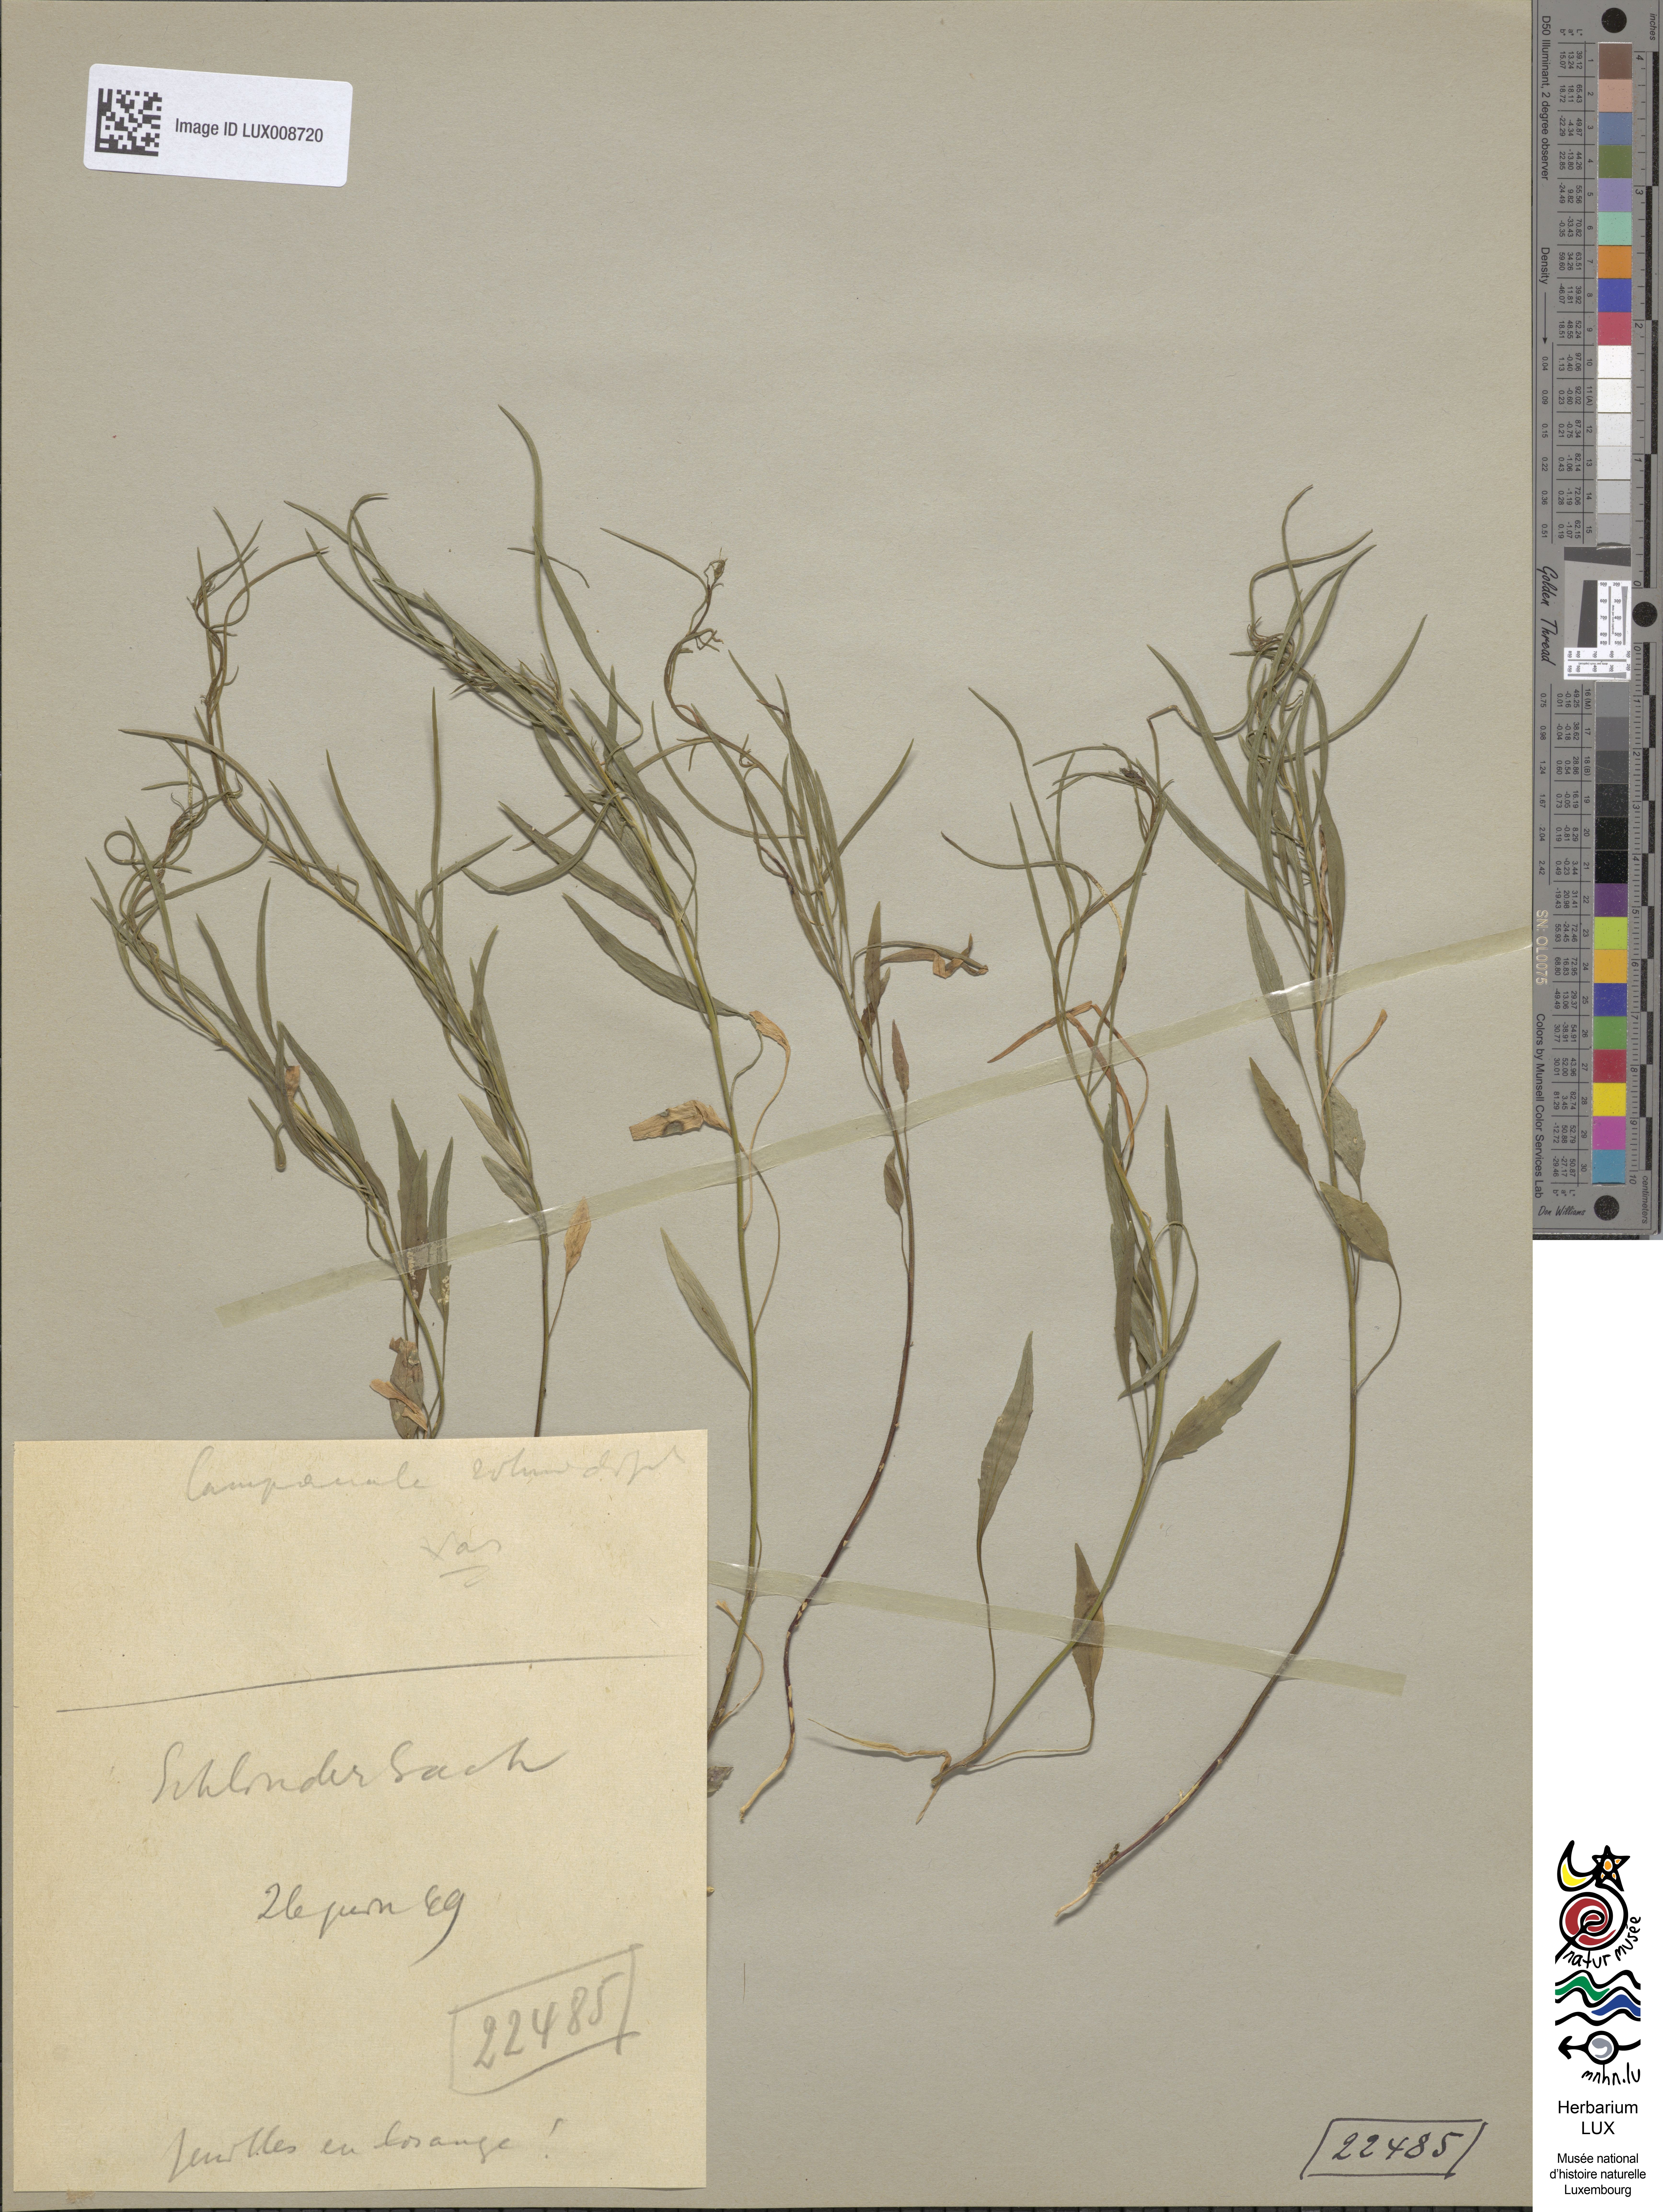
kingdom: Plantae
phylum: Tracheophyta
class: Magnoliopsida
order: Asterales
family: Campanulaceae
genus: Campanula
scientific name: Campanula rotundifolia
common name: Harebell
